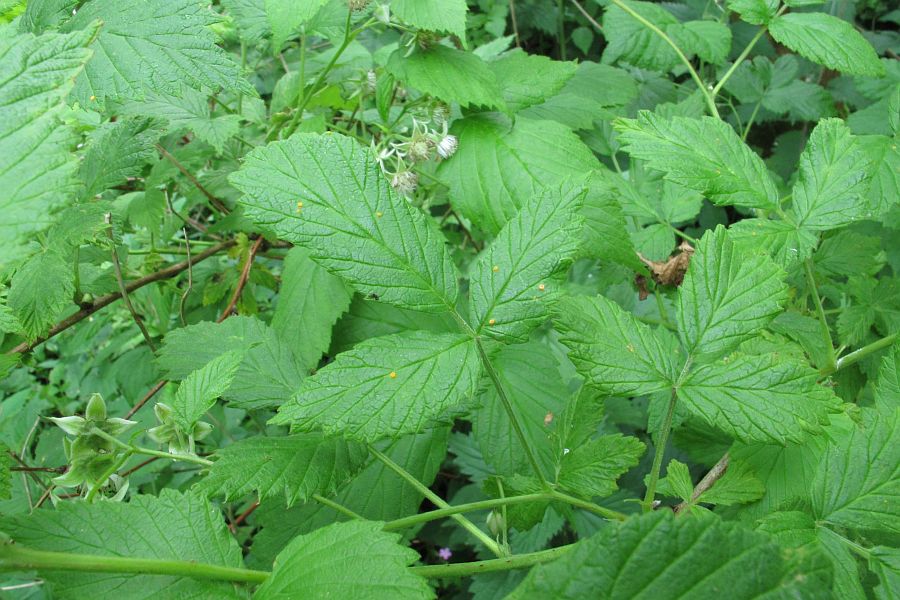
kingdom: Fungi
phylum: Basidiomycota
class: Pucciniomycetes
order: Pucciniales
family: Phragmidiaceae
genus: Phragmidium
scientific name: Phragmidium rubi-idaei
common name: hindbær-flercellerust
